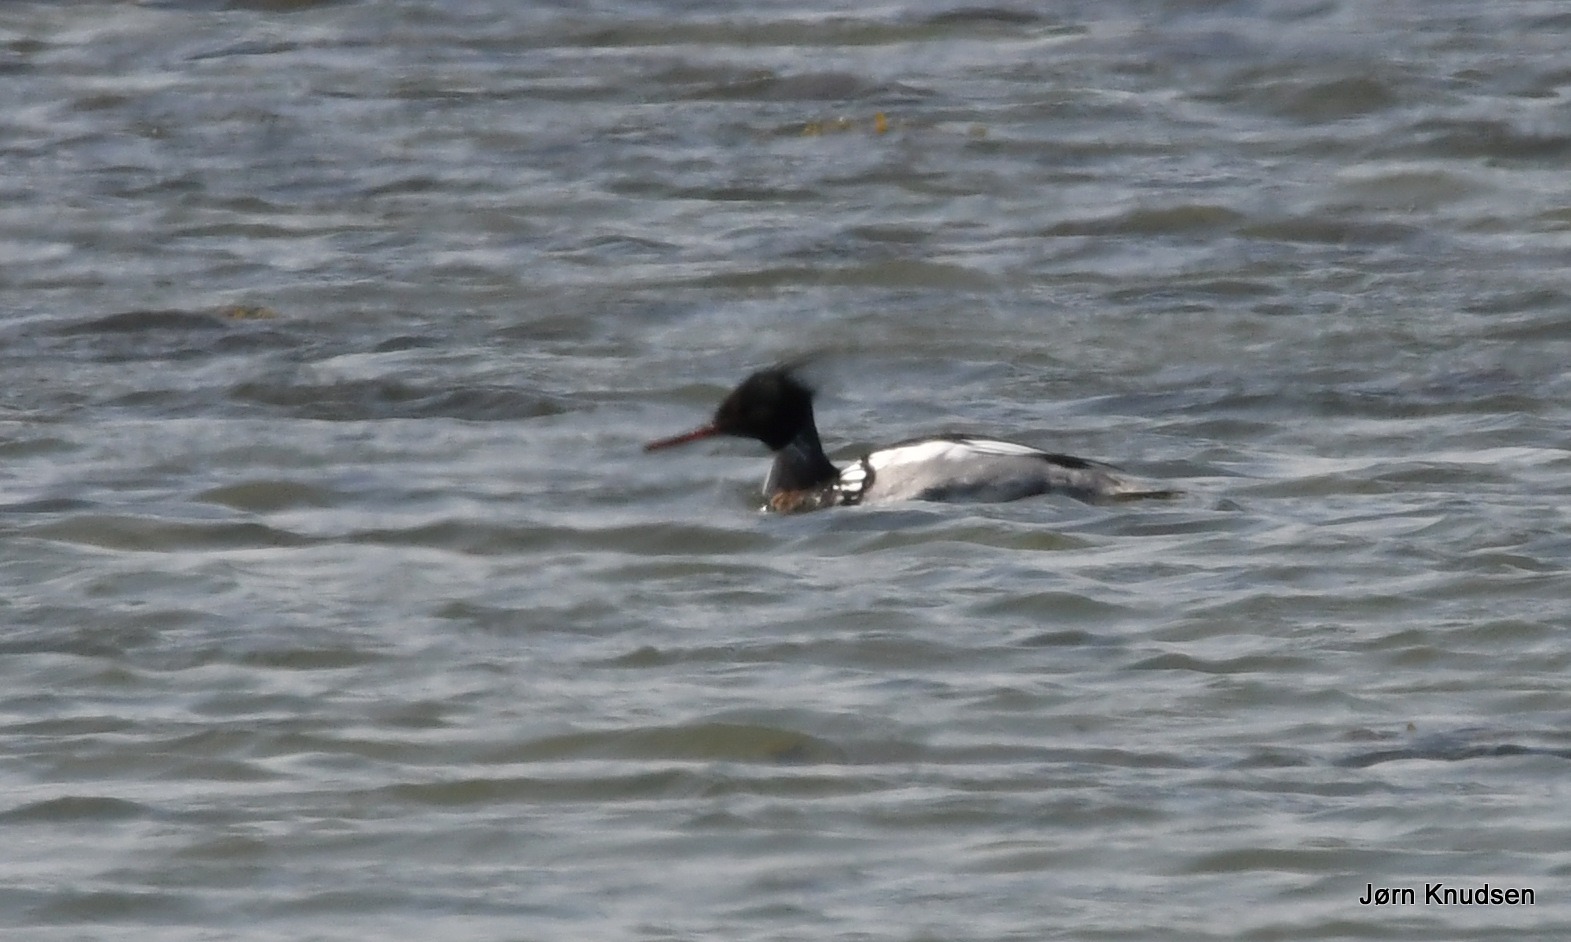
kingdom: Animalia
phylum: Chordata
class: Aves
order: Anseriformes
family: Anatidae
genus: Mergus
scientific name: Mergus serrator
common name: Toppet skallesluger
